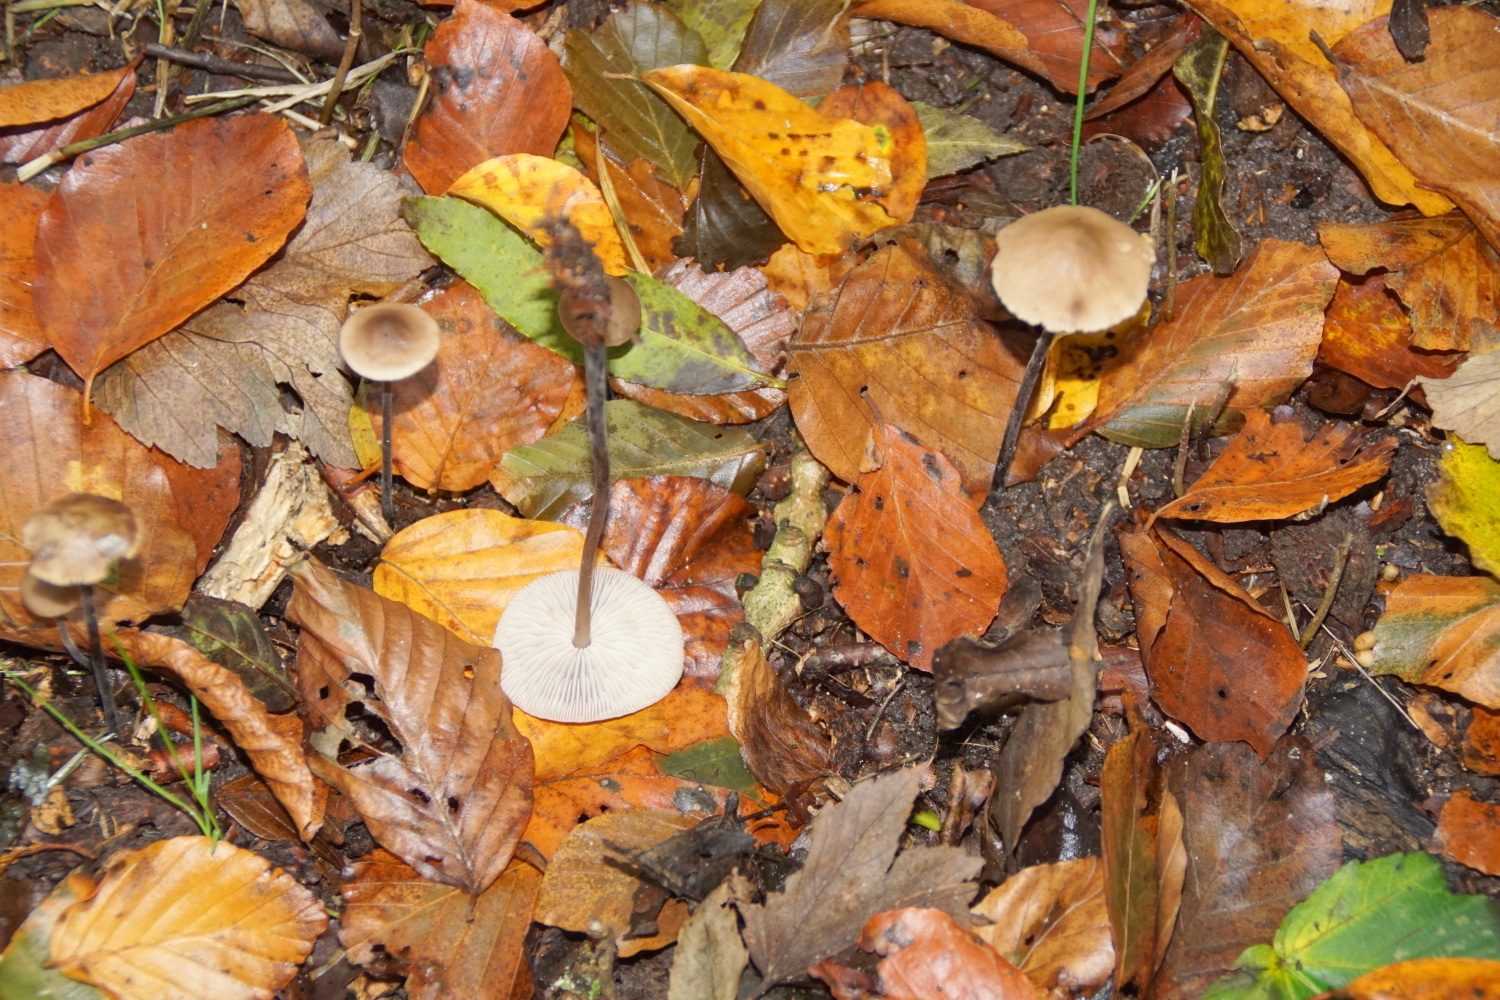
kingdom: Fungi
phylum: Basidiomycota
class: Agaricomycetes
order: Agaricales
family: Omphalotaceae
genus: Mycetinis
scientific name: Mycetinis alliaceus
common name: stor løghat
